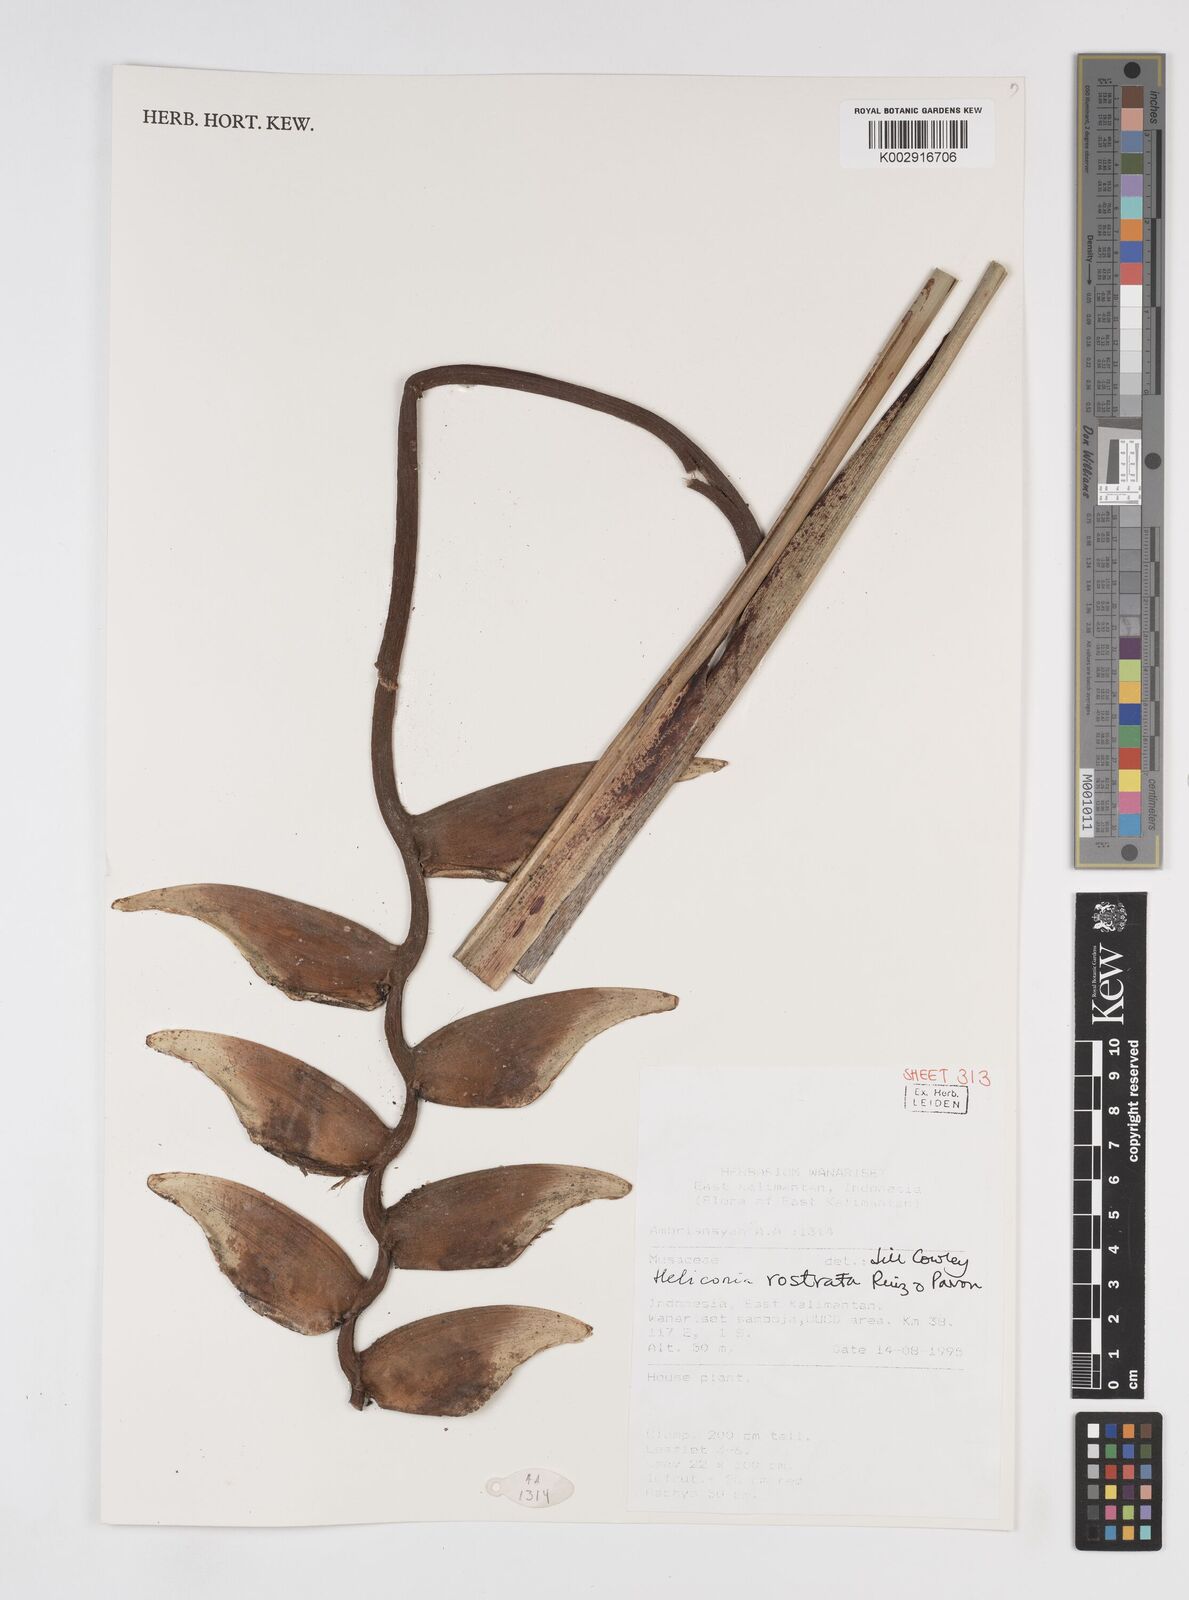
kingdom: Plantae
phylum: Tracheophyta
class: Liliopsida
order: Zingiberales
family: Heliconiaceae
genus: Heliconia
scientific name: Heliconia rostrata
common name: False bird of paradise
